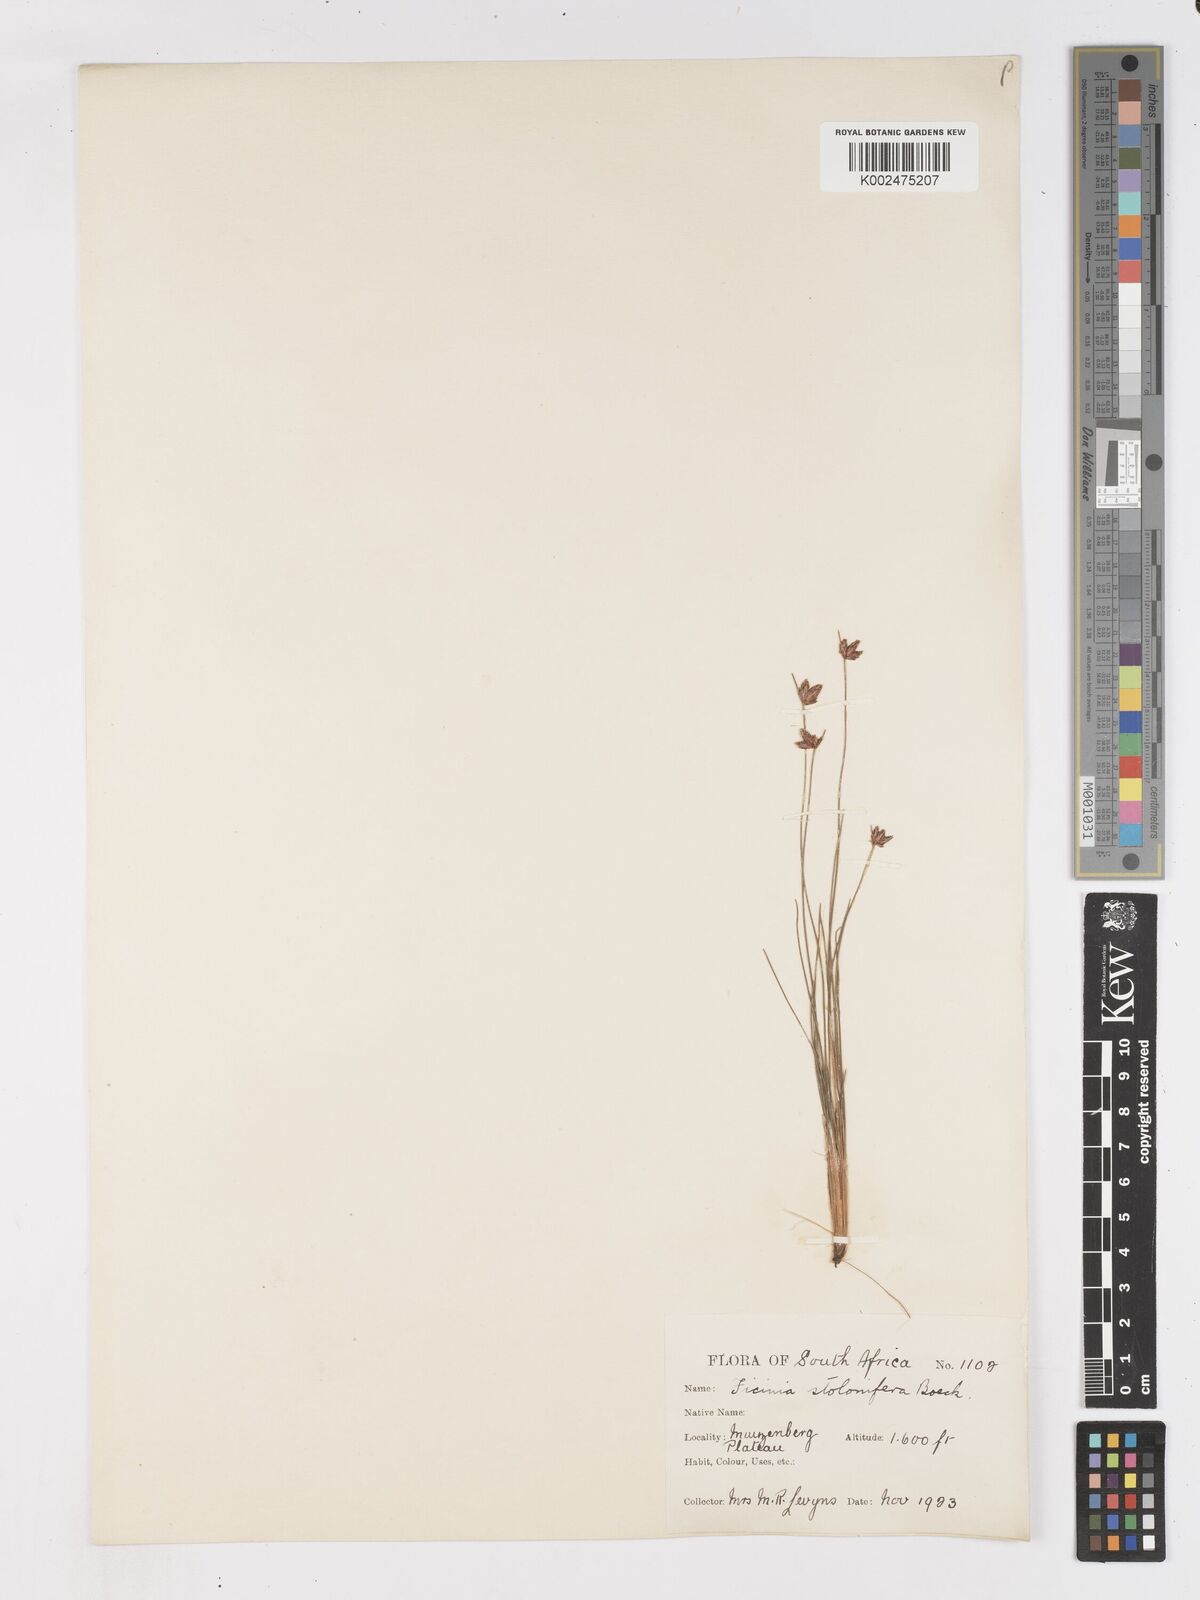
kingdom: Plantae
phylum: Tracheophyta
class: Liliopsida
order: Poales
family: Cyperaceae
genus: Ficinia
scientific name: Ficinia stolonifera
